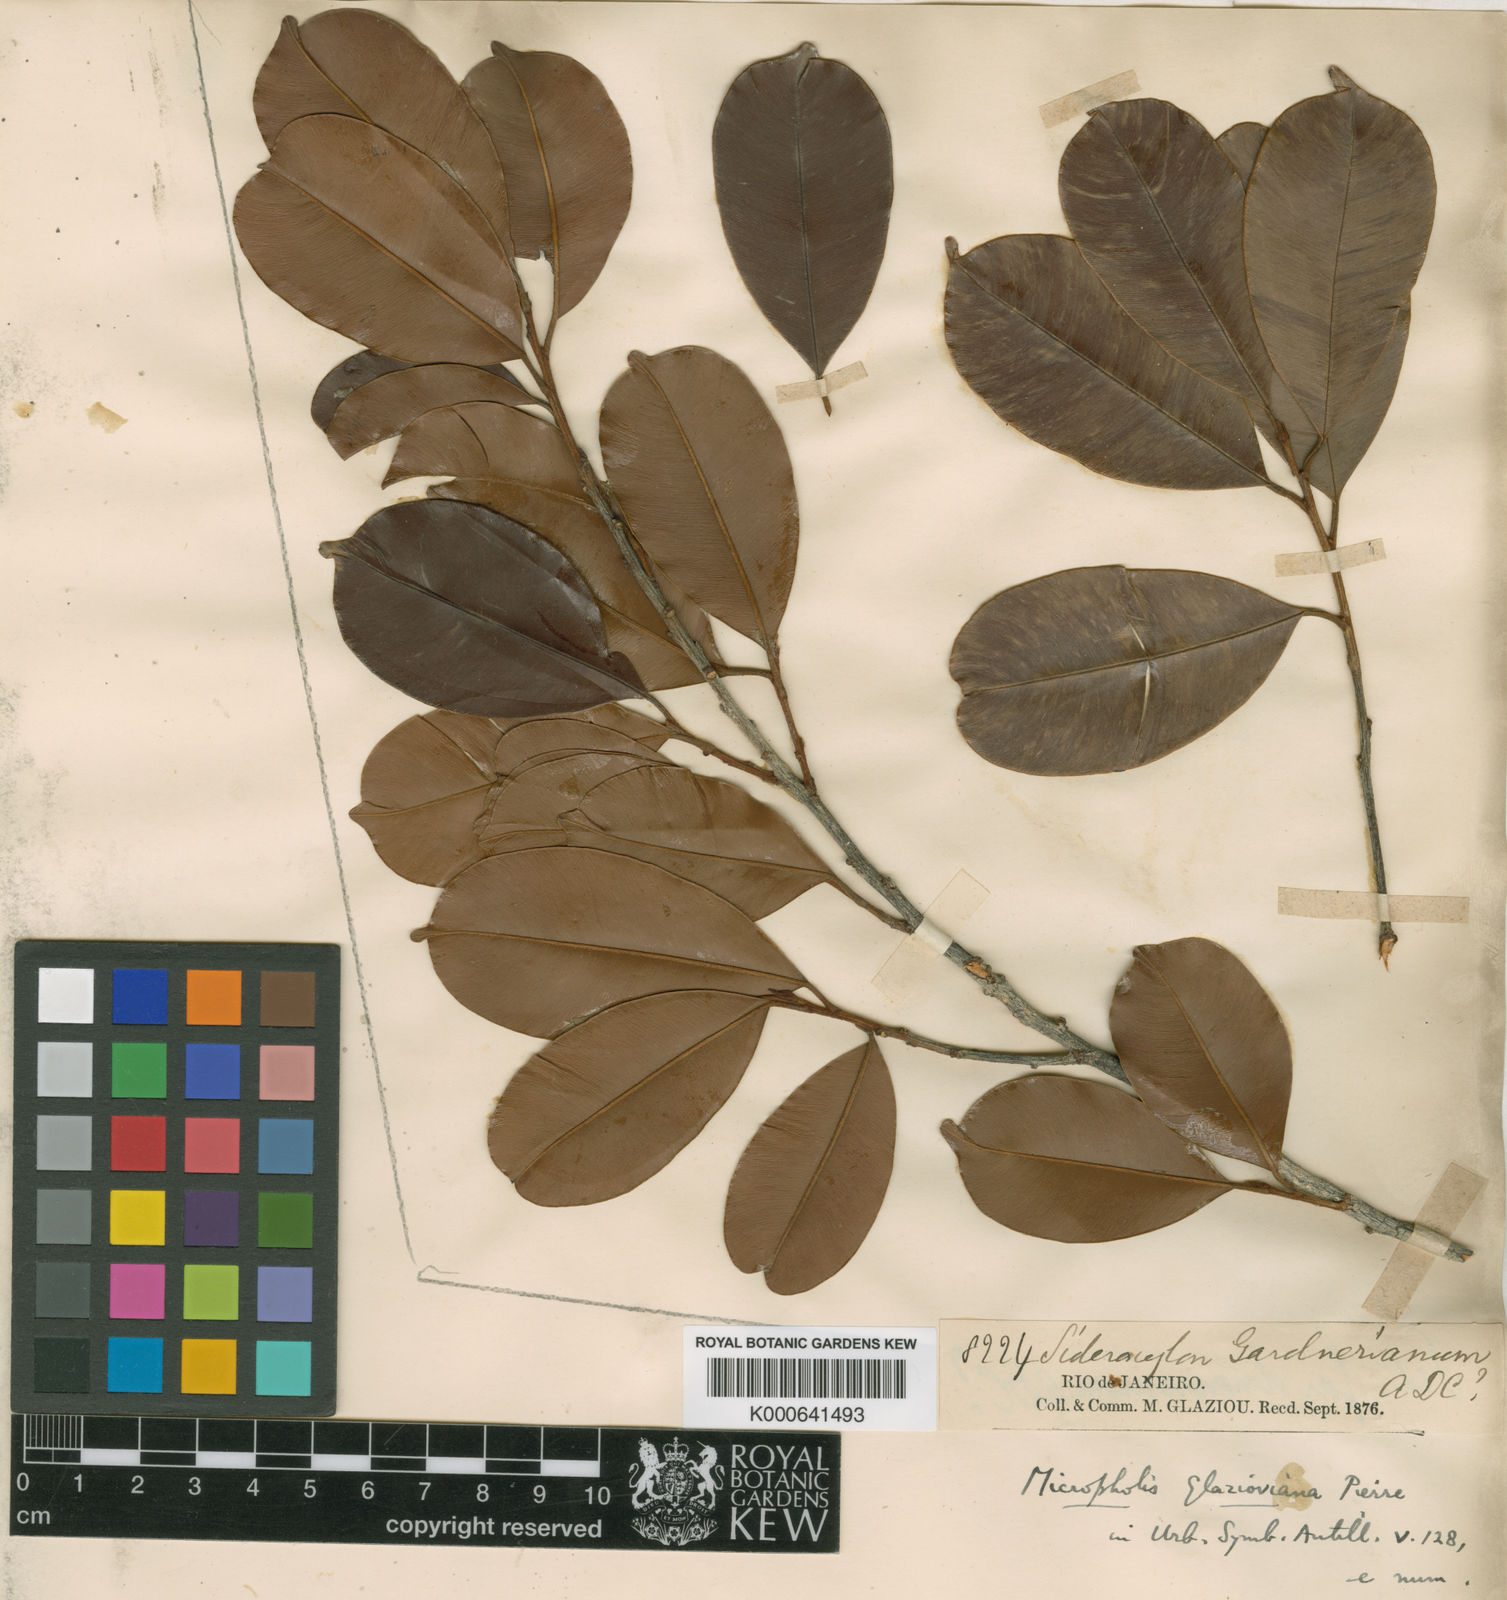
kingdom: Plantae
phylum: Tracheophyta
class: Magnoliopsida
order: Ericales
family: Sapotaceae
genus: Micropholis
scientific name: Micropholis gardneriana
